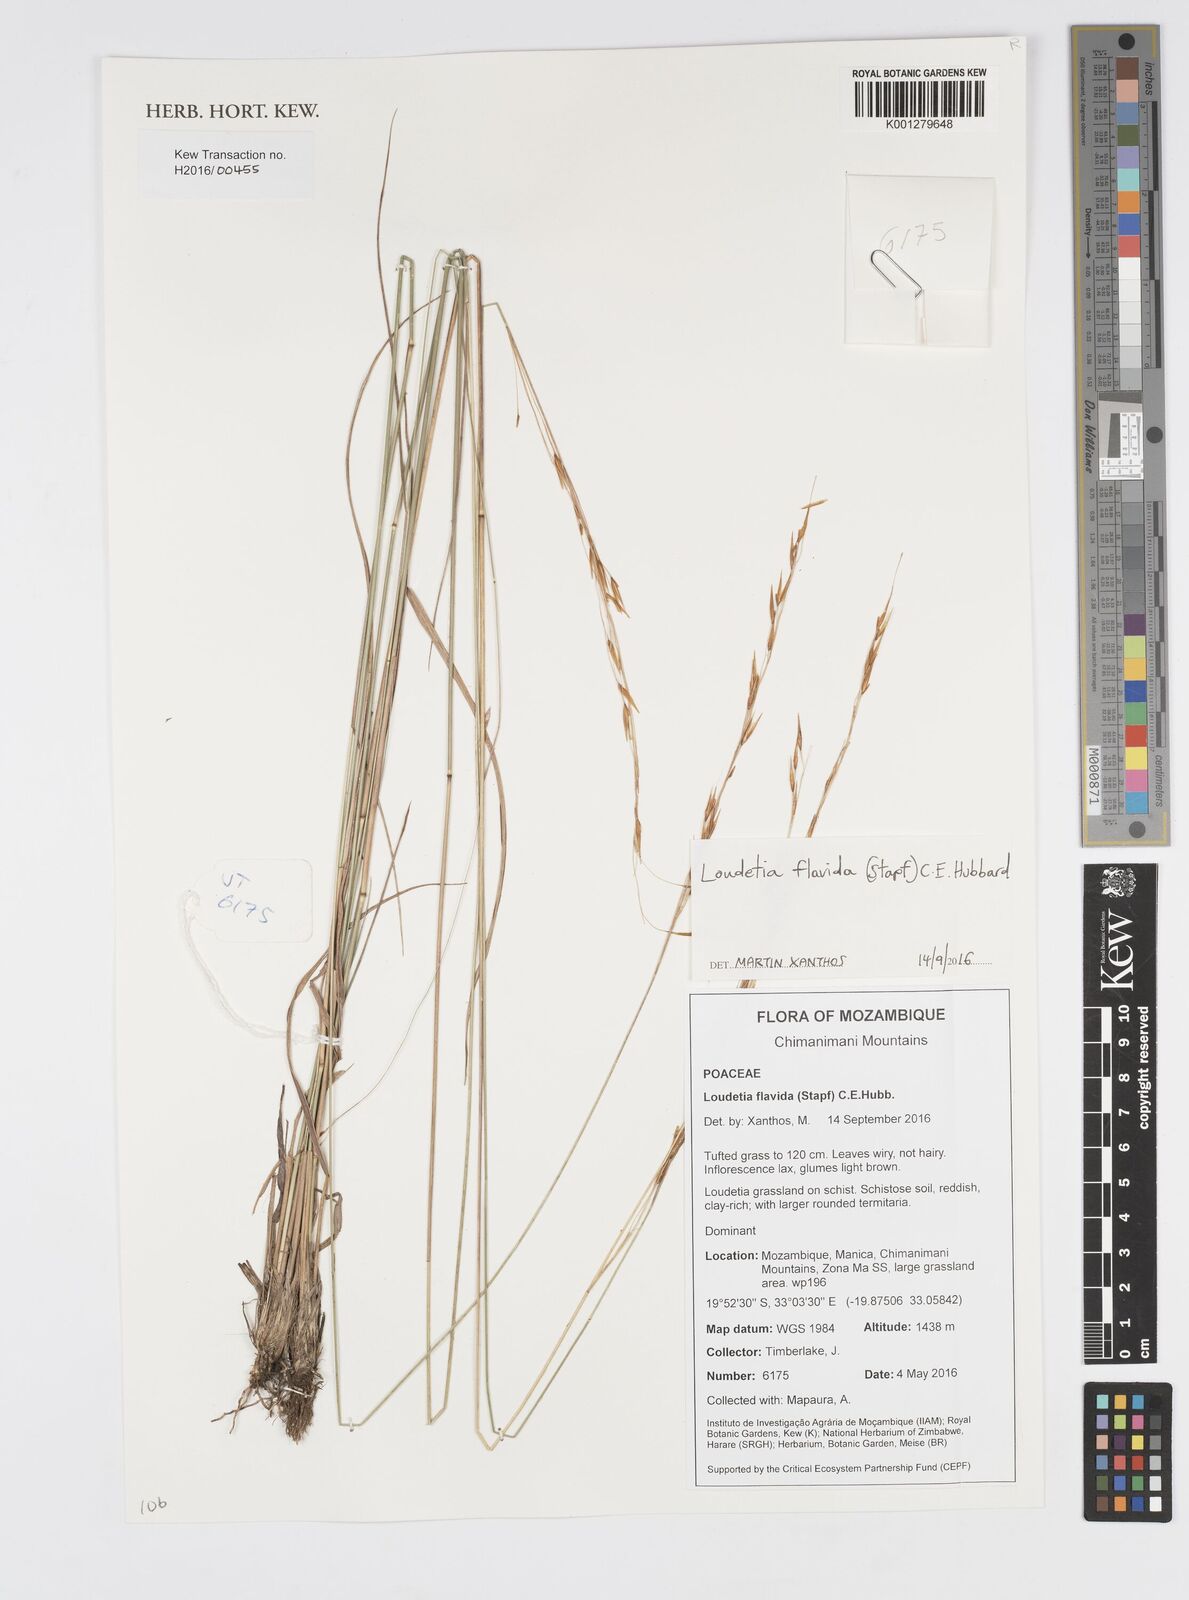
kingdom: Plantae
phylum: Tracheophyta
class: Liliopsida
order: Poales
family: Poaceae
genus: Loudetia
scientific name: Loudetia flavida
